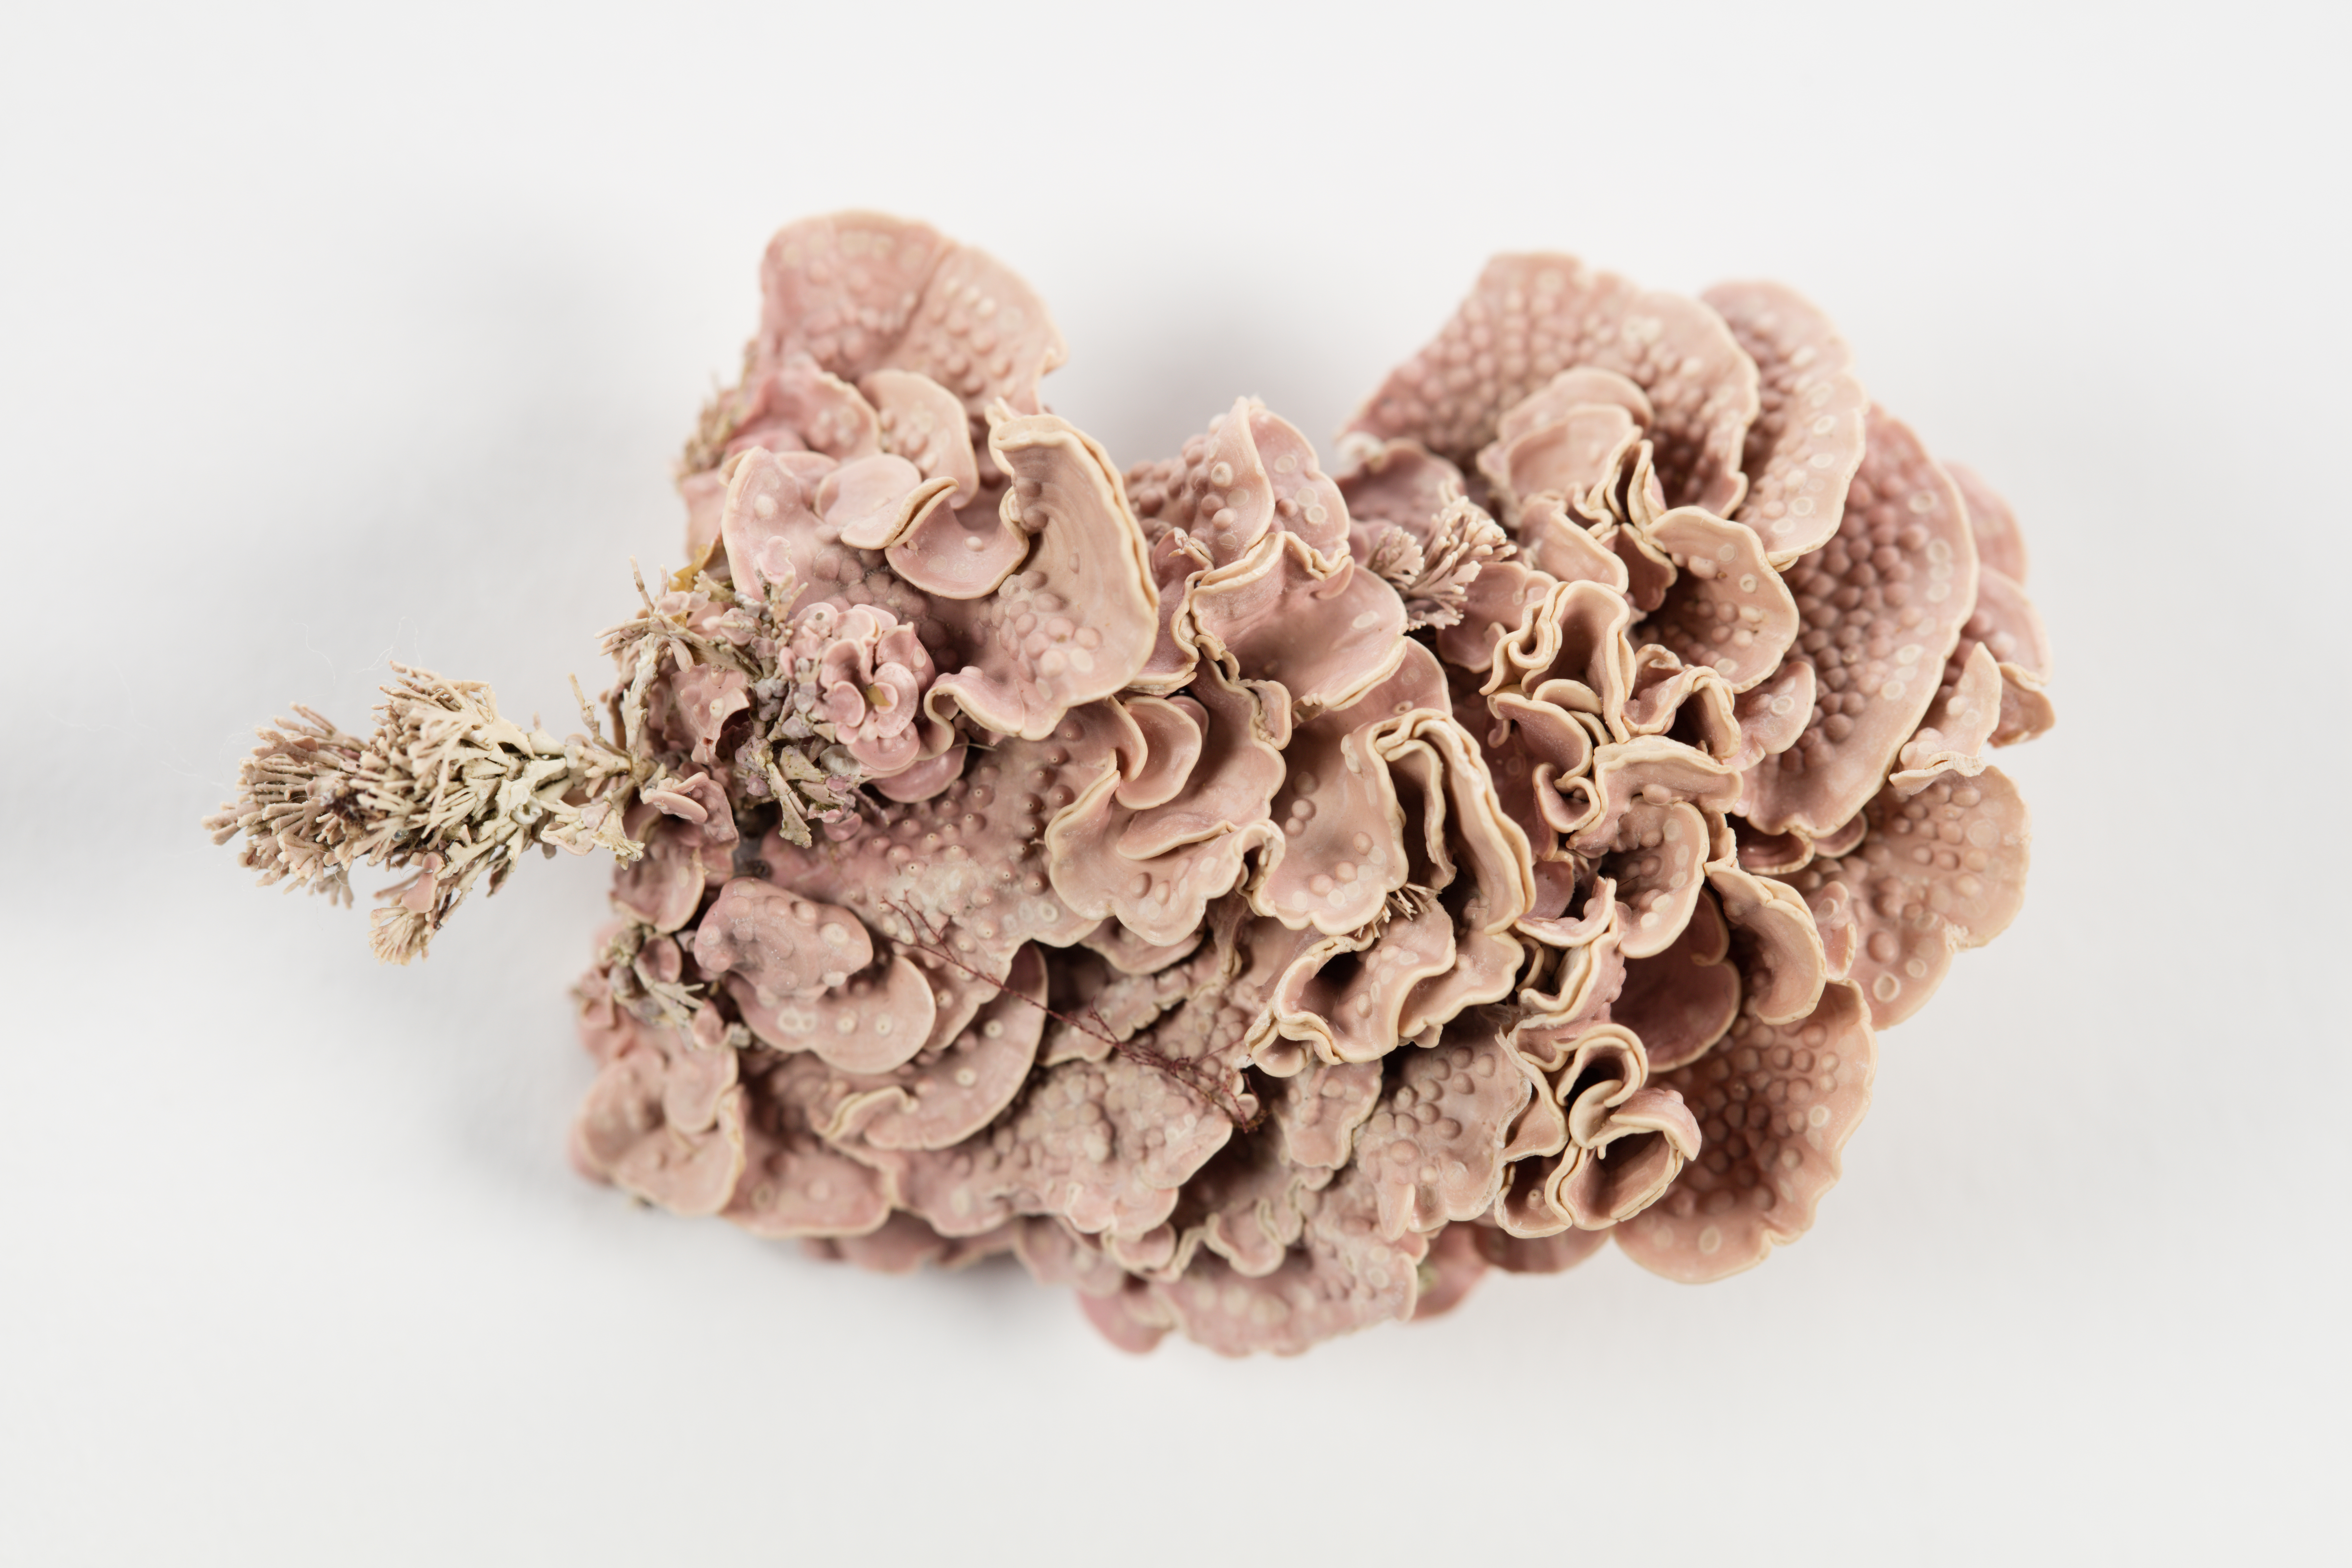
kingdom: Plantae
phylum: Rhodophyta
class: Florideophyceae
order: Corallinales
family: Hapalidiaceae
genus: Lithothamnion
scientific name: Lithothamnion
